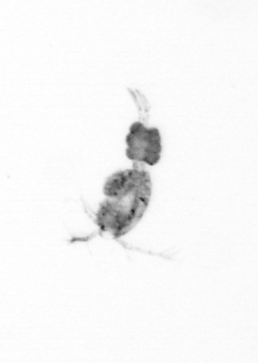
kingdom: Animalia
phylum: Arthropoda
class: Copepoda
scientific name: Copepoda
